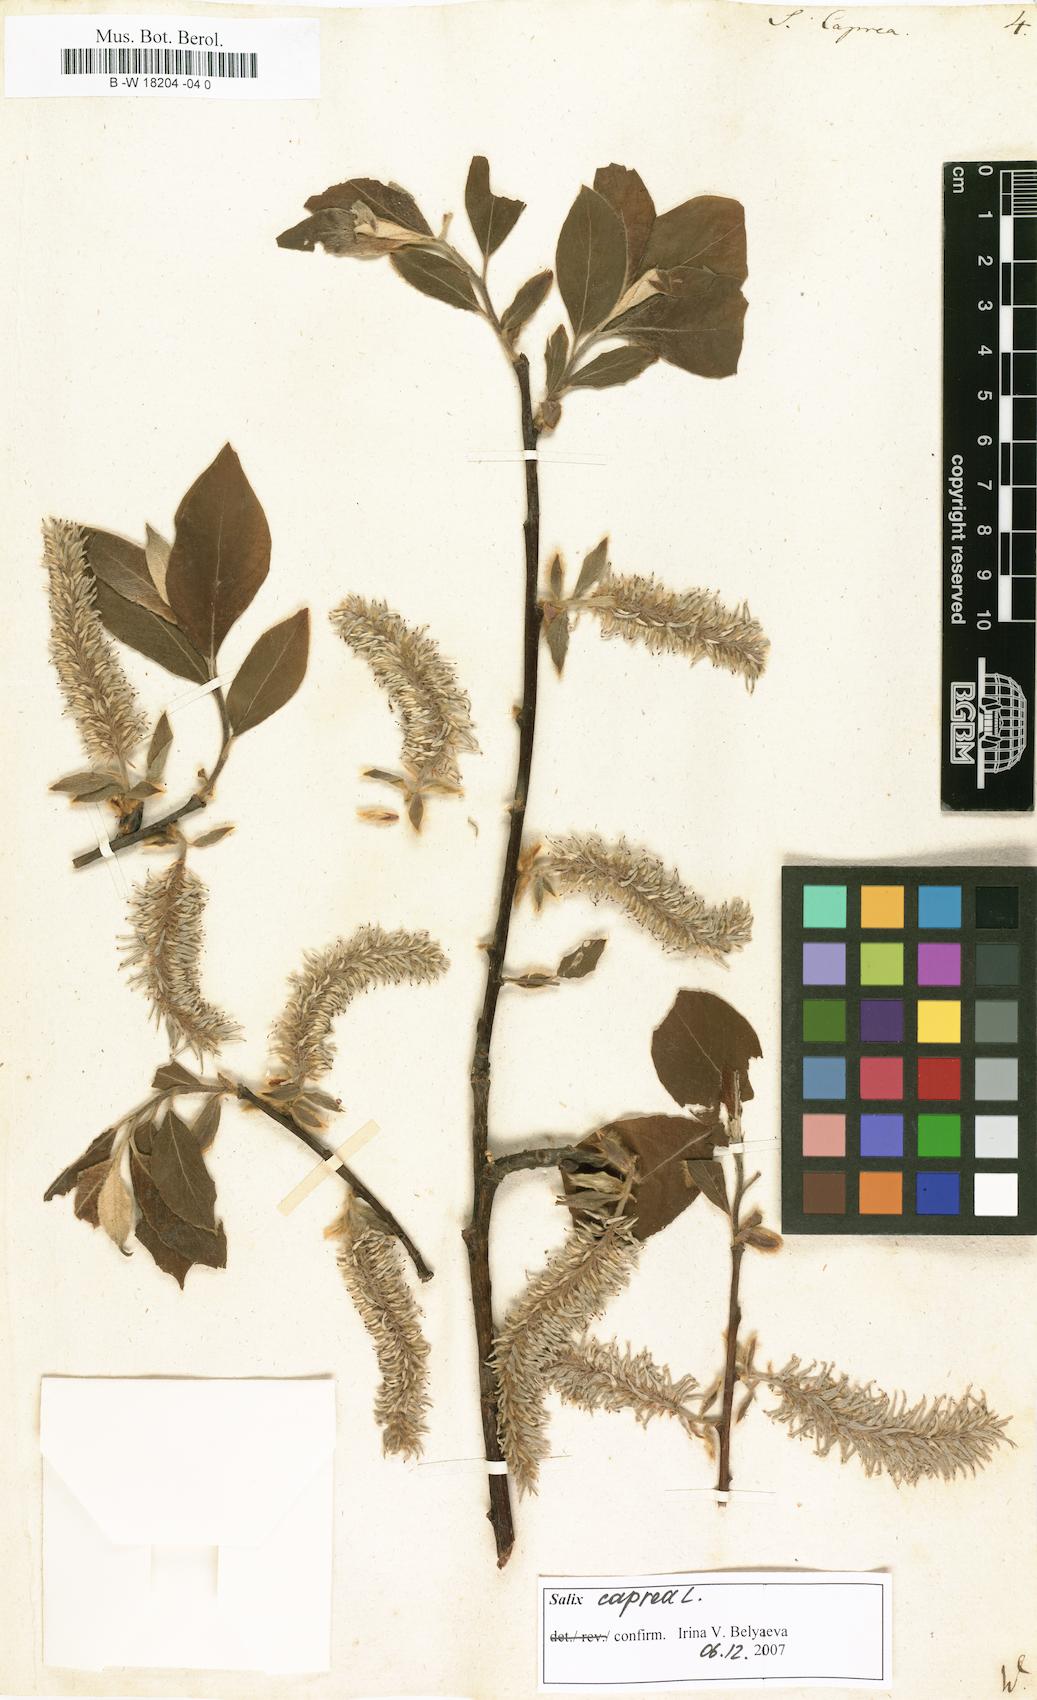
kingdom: Plantae
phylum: Tracheophyta
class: Magnoliopsida
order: Malpighiales
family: Salicaceae
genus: Salix
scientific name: Salix caprea
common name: Goat willow
